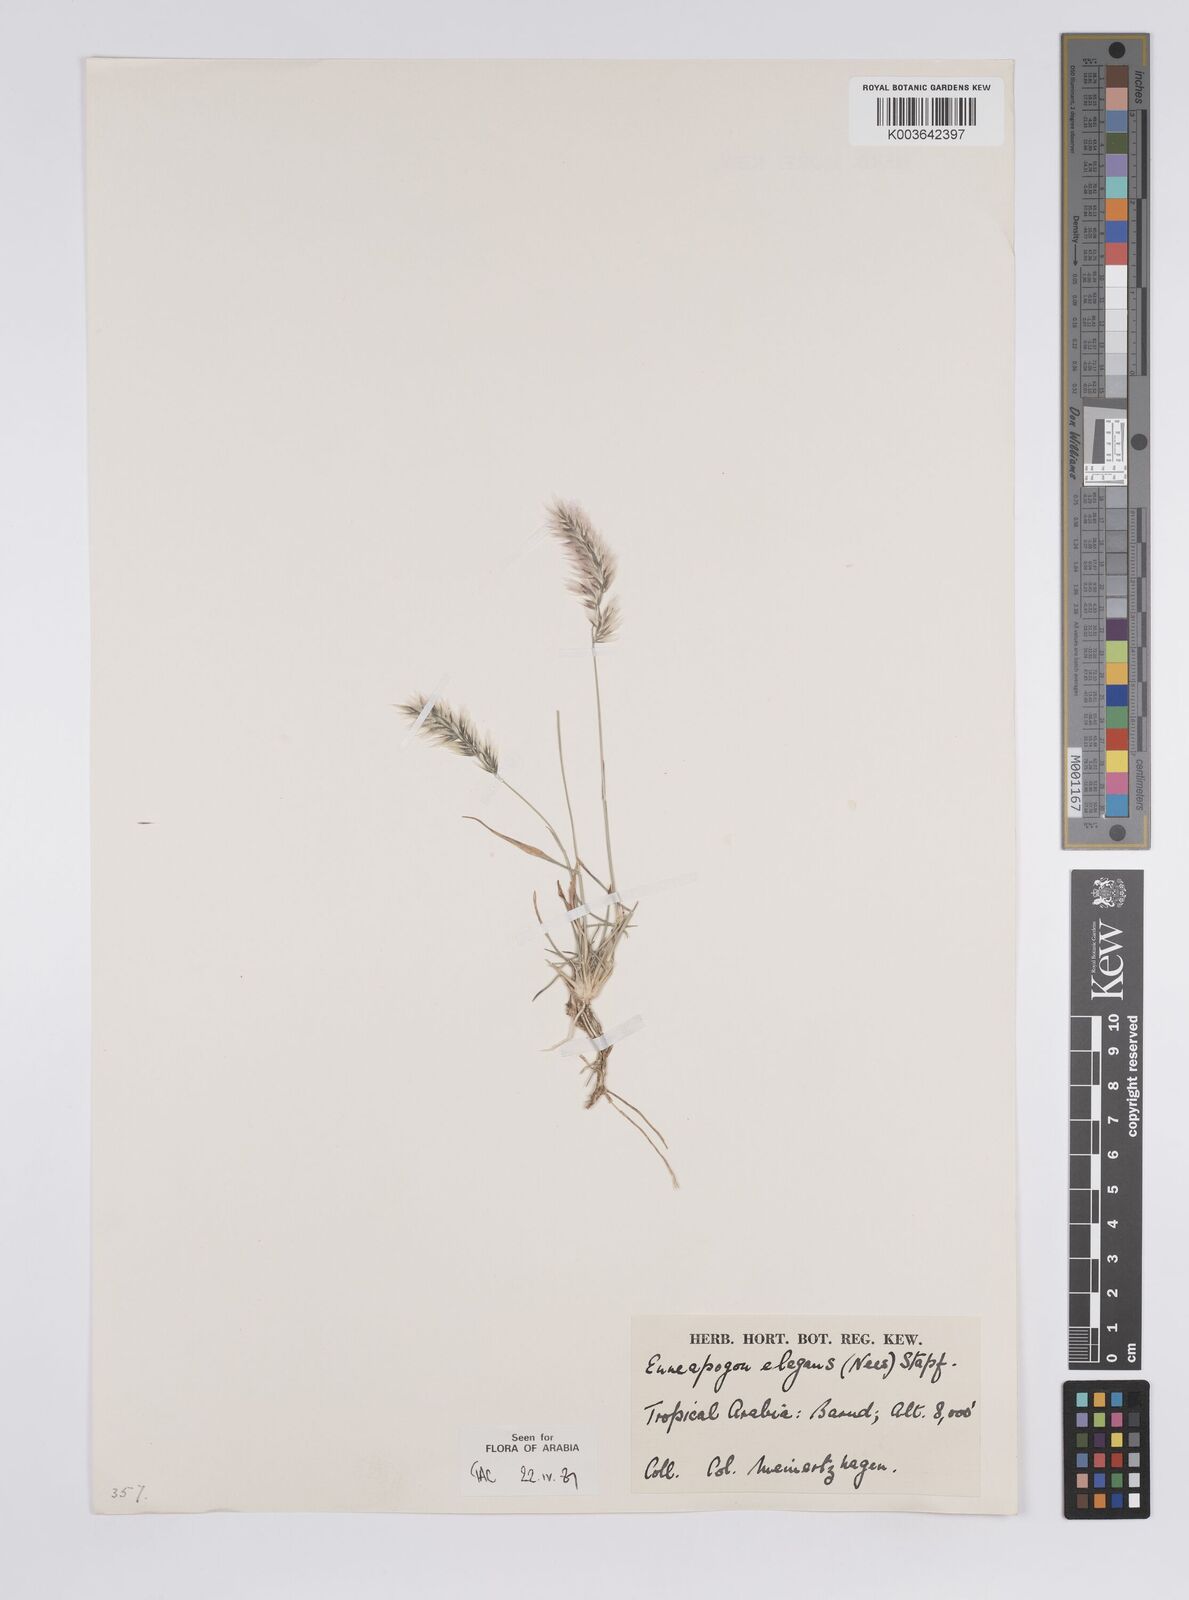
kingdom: Plantae
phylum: Tracheophyta
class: Liliopsida
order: Poales
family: Poaceae
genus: Enneapogon
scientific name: Enneapogon persicus
